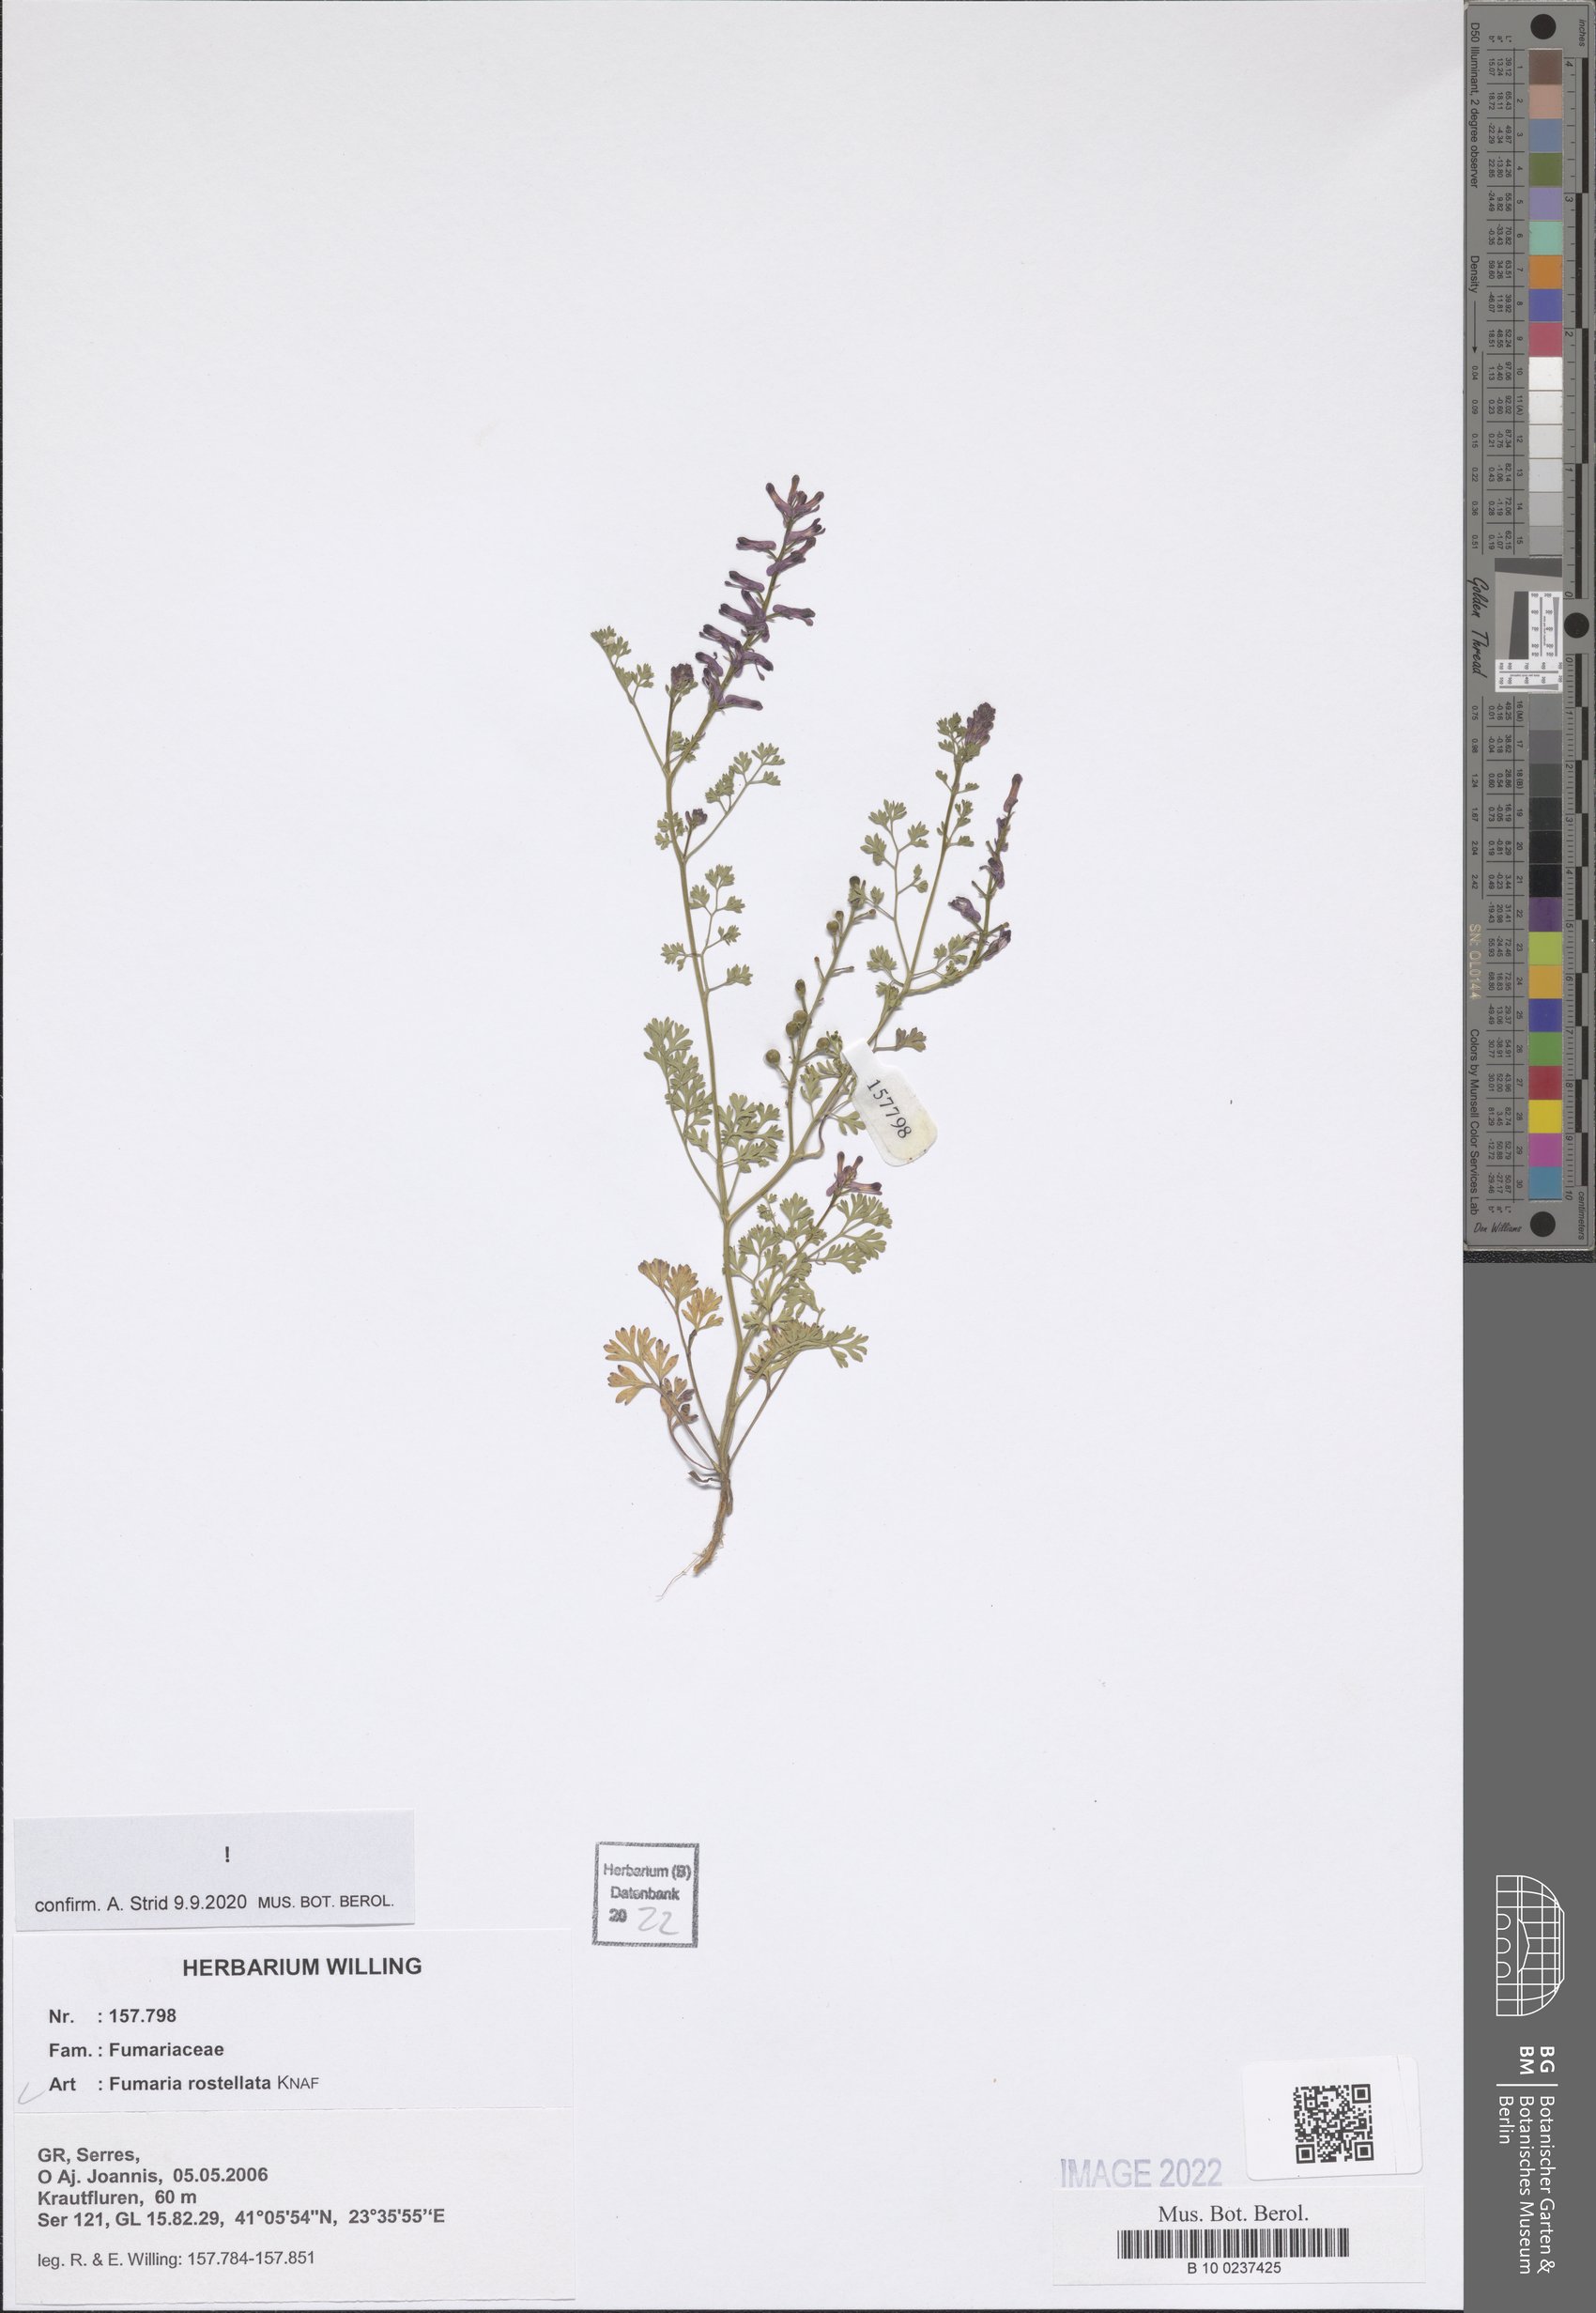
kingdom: Plantae
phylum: Tracheophyta
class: Magnoliopsida
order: Ranunculales
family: Papaveraceae
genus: Fumaria
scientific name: Fumaria rostellata
